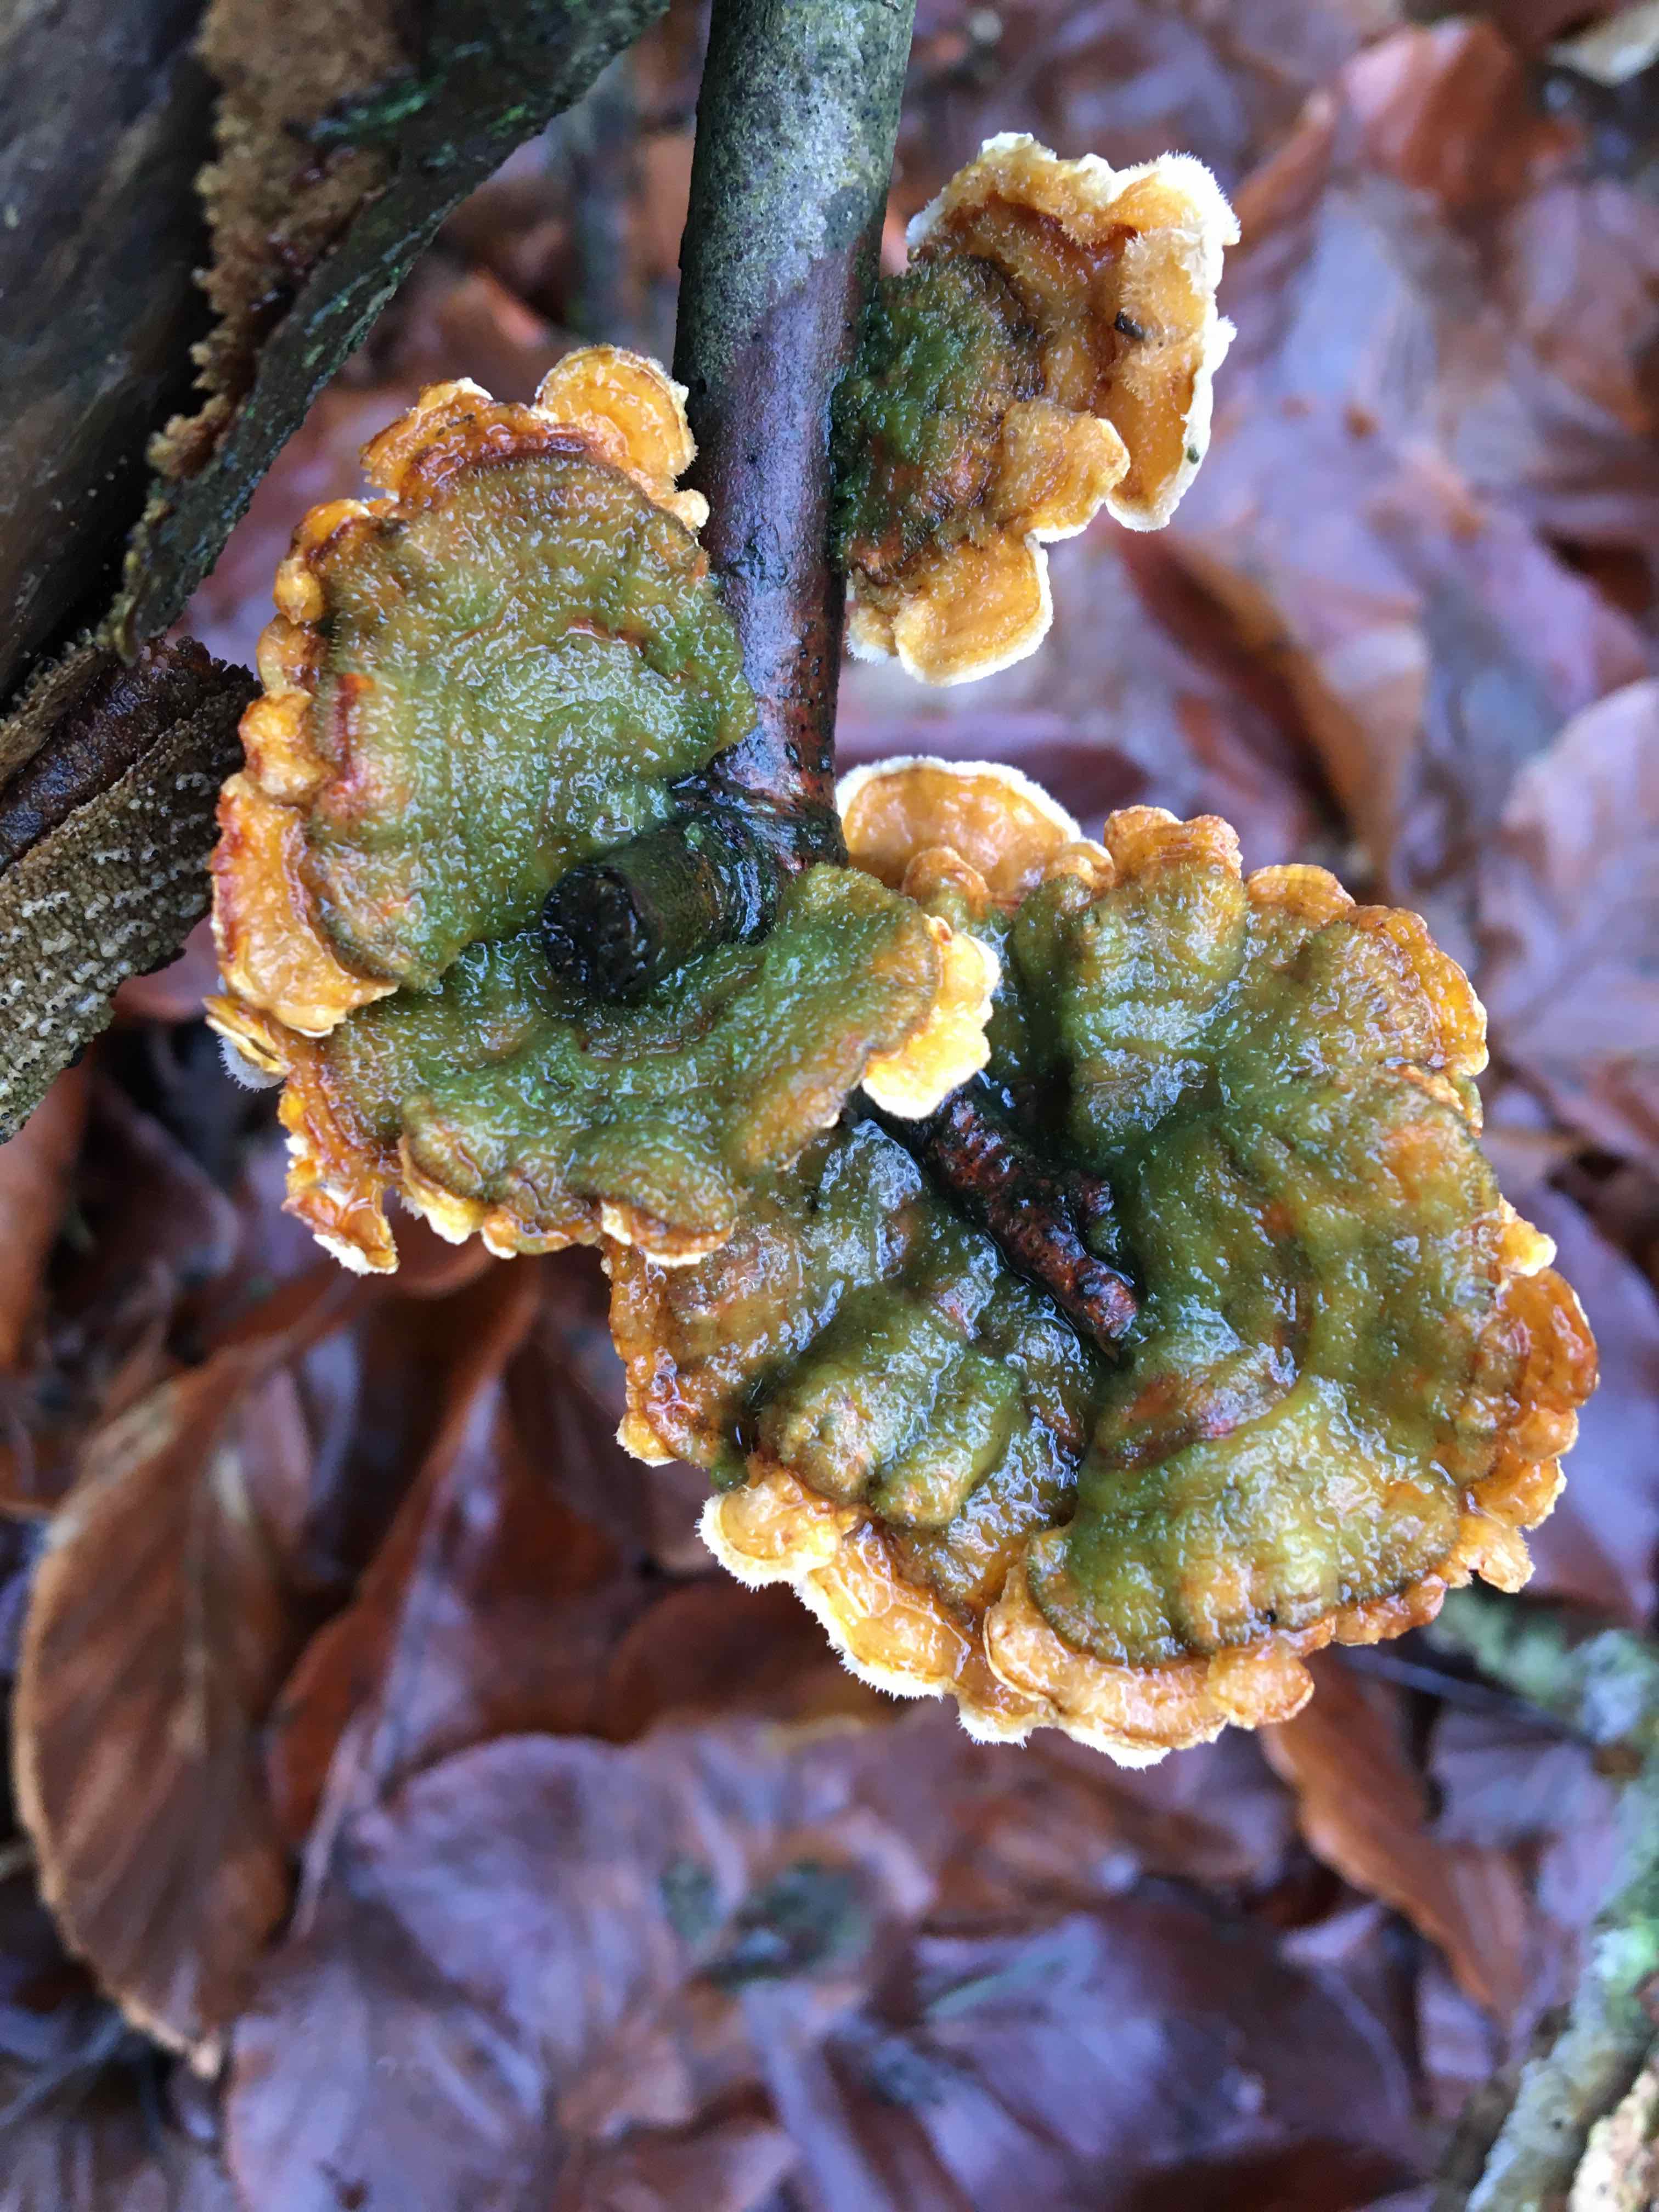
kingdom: Fungi
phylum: Basidiomycota
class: Agaricomycetes
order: Russulales
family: Stereaceae
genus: Stereum
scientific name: Stereum hirsutum
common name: håret lædersvamp
